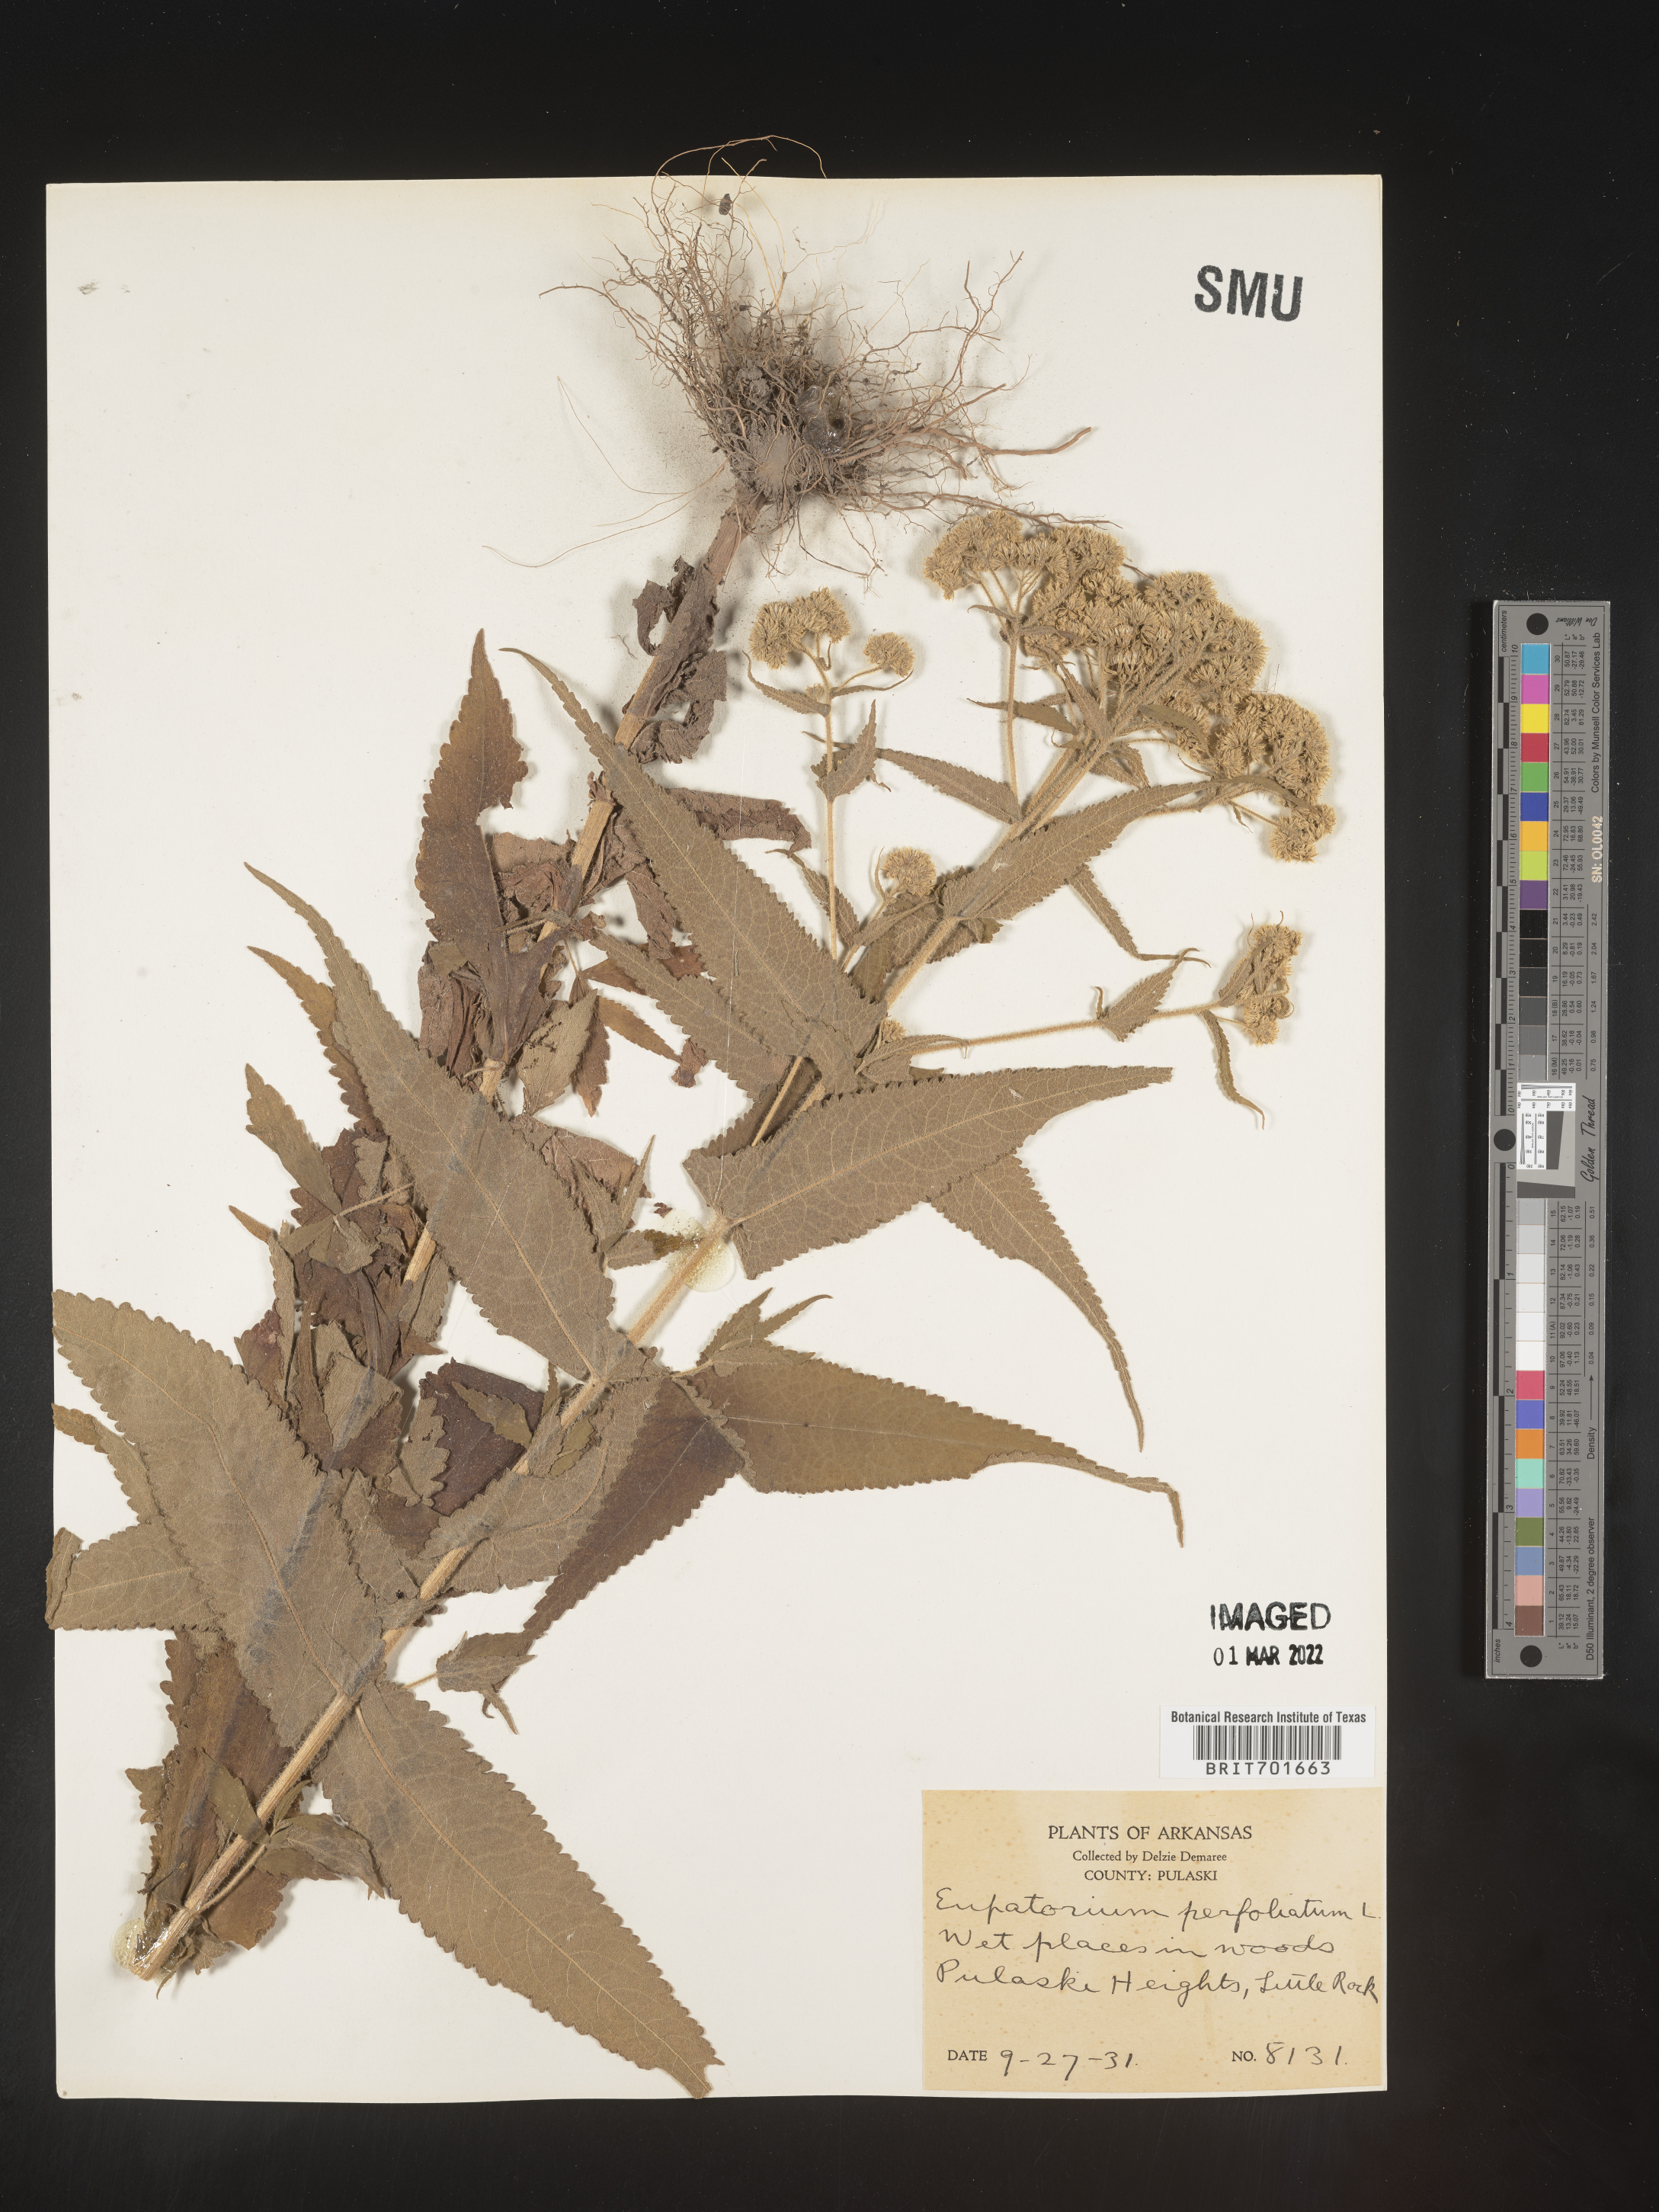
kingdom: Plantae
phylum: Tracheophyta
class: Magnoliopsida
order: Asterales
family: Asteraceae
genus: Eupatorium
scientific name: Eupatorium perfoliatum
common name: Boneset
